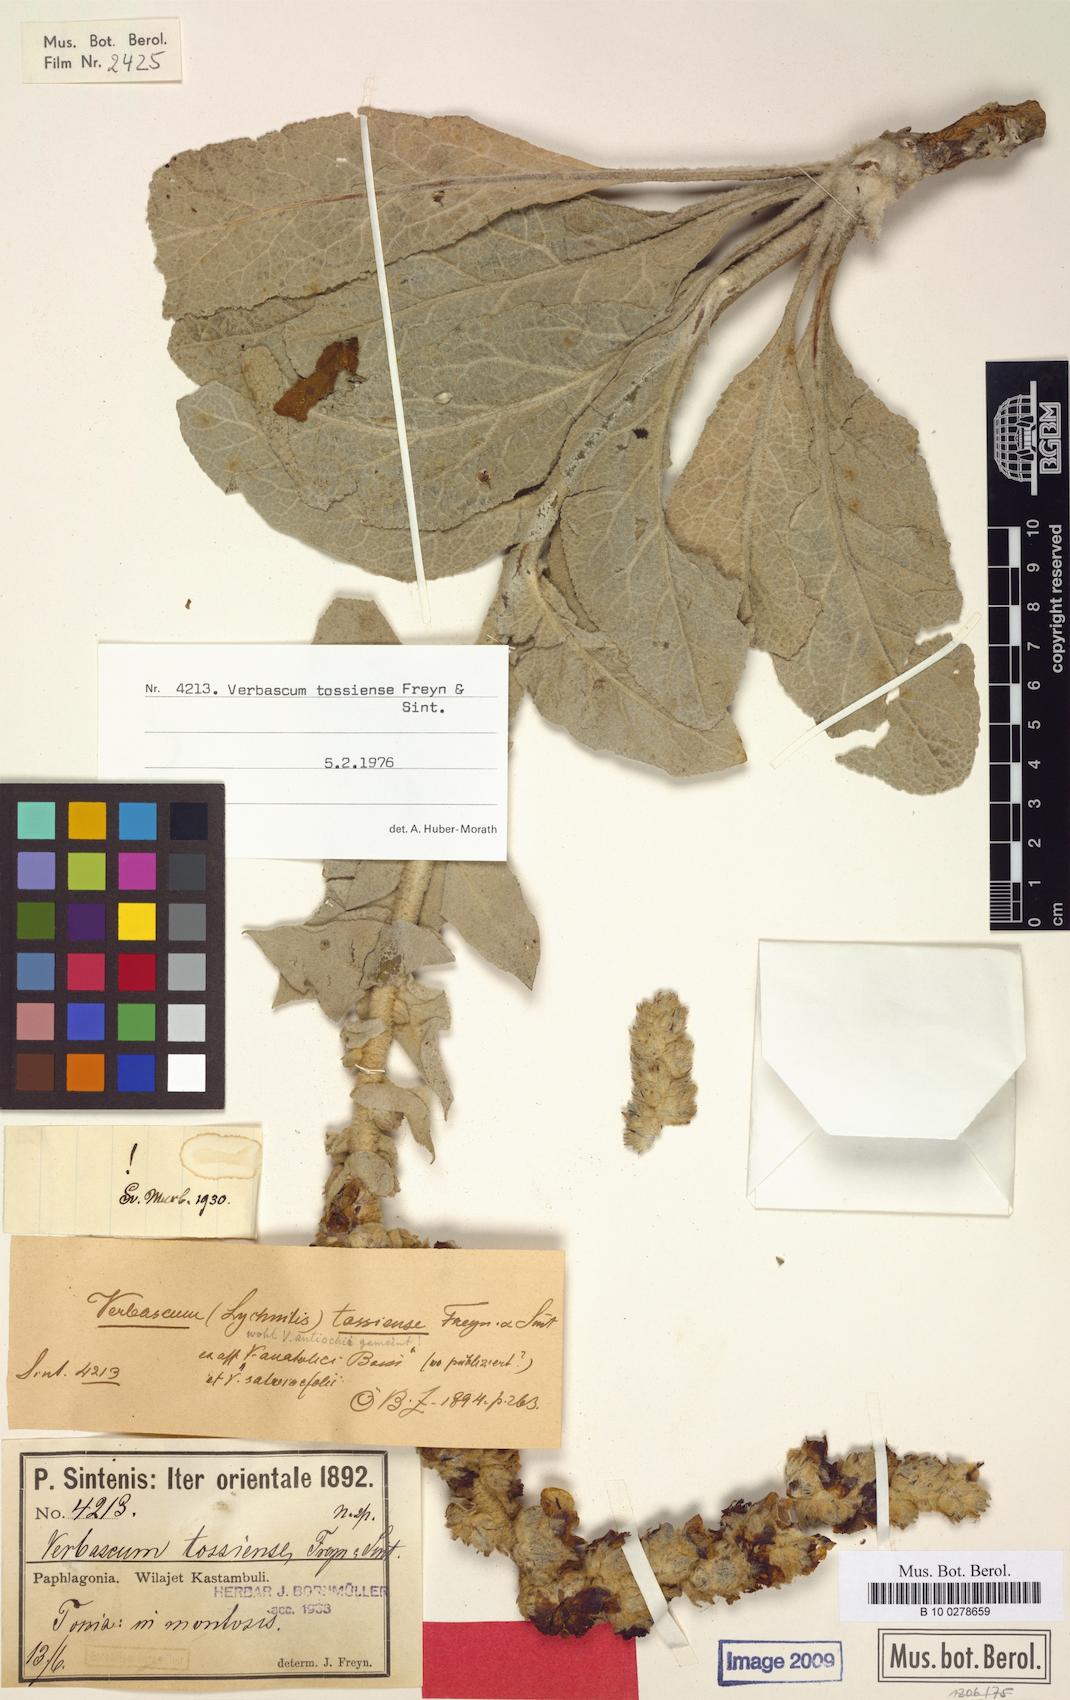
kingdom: Plantae
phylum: Tracheophyta
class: Magnoliopsida
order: Lamiales
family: Scrophulariaceae
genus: Verbascum
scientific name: Verbascum tossiense
